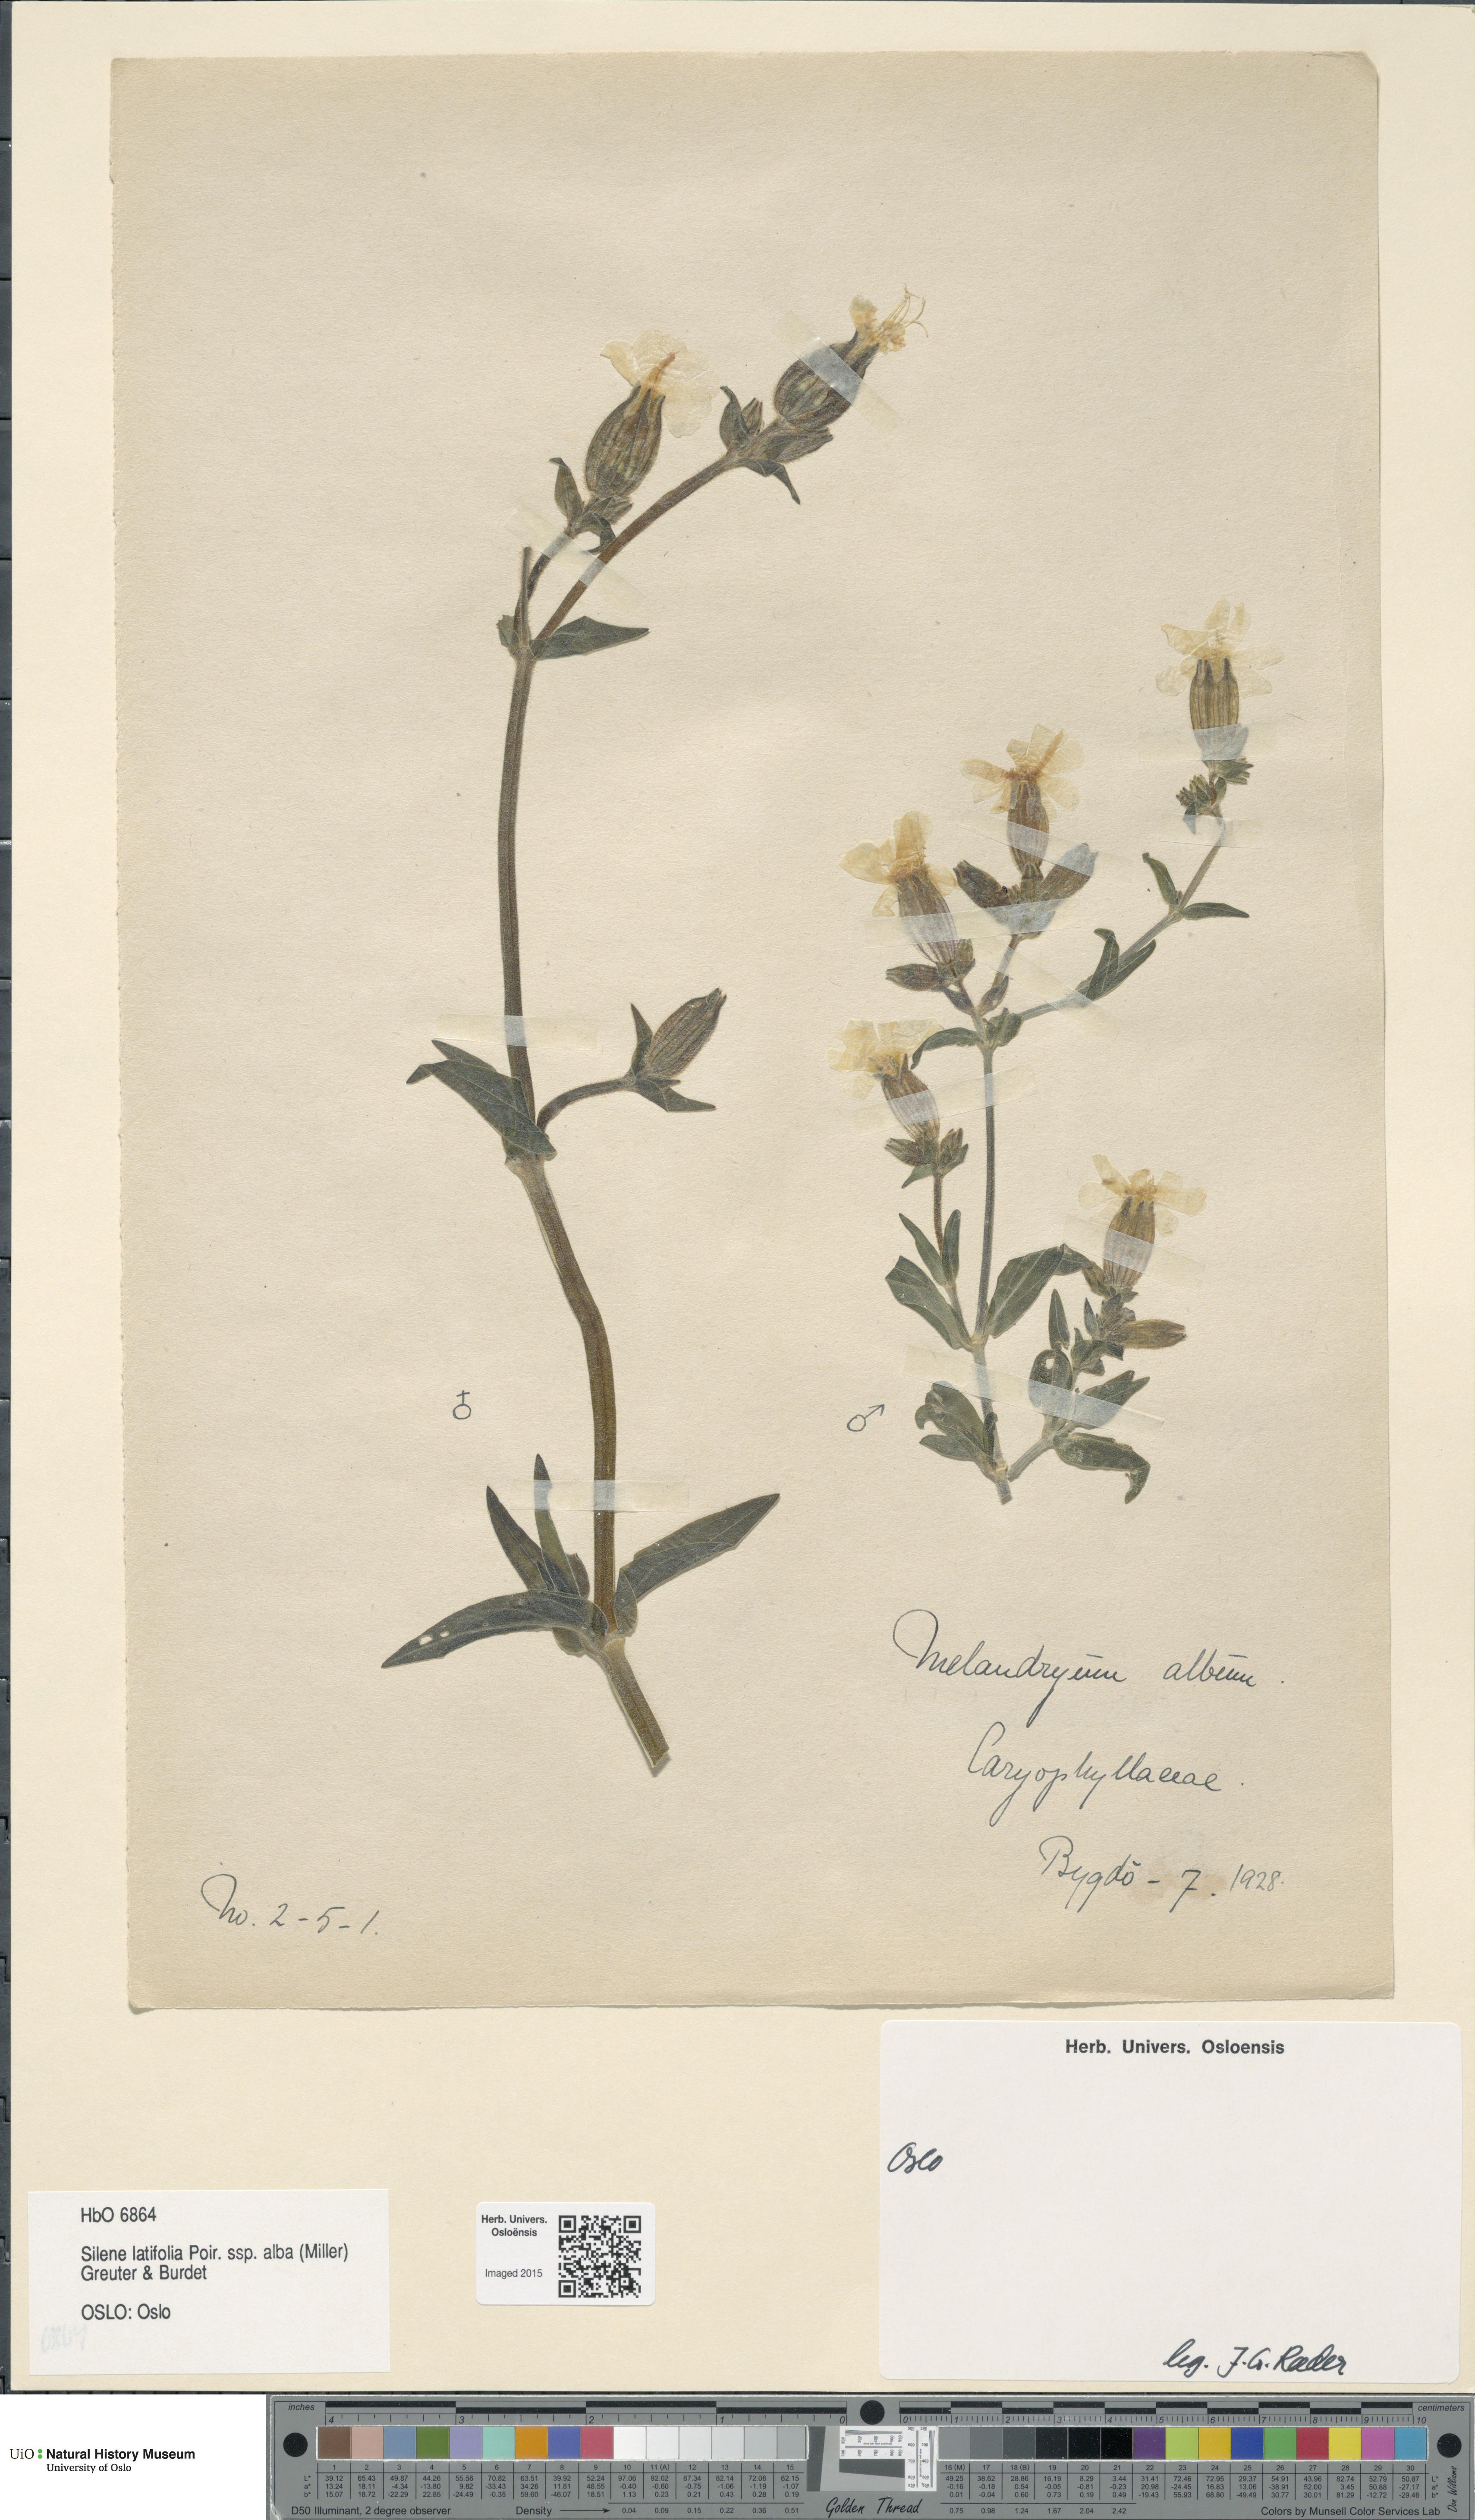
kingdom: Plantae
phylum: Tracheophyta
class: Magnoliopsida
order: Caryophyllales
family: Caryophyllaceae
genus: Silene
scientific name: Silene latifolia
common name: White campion
